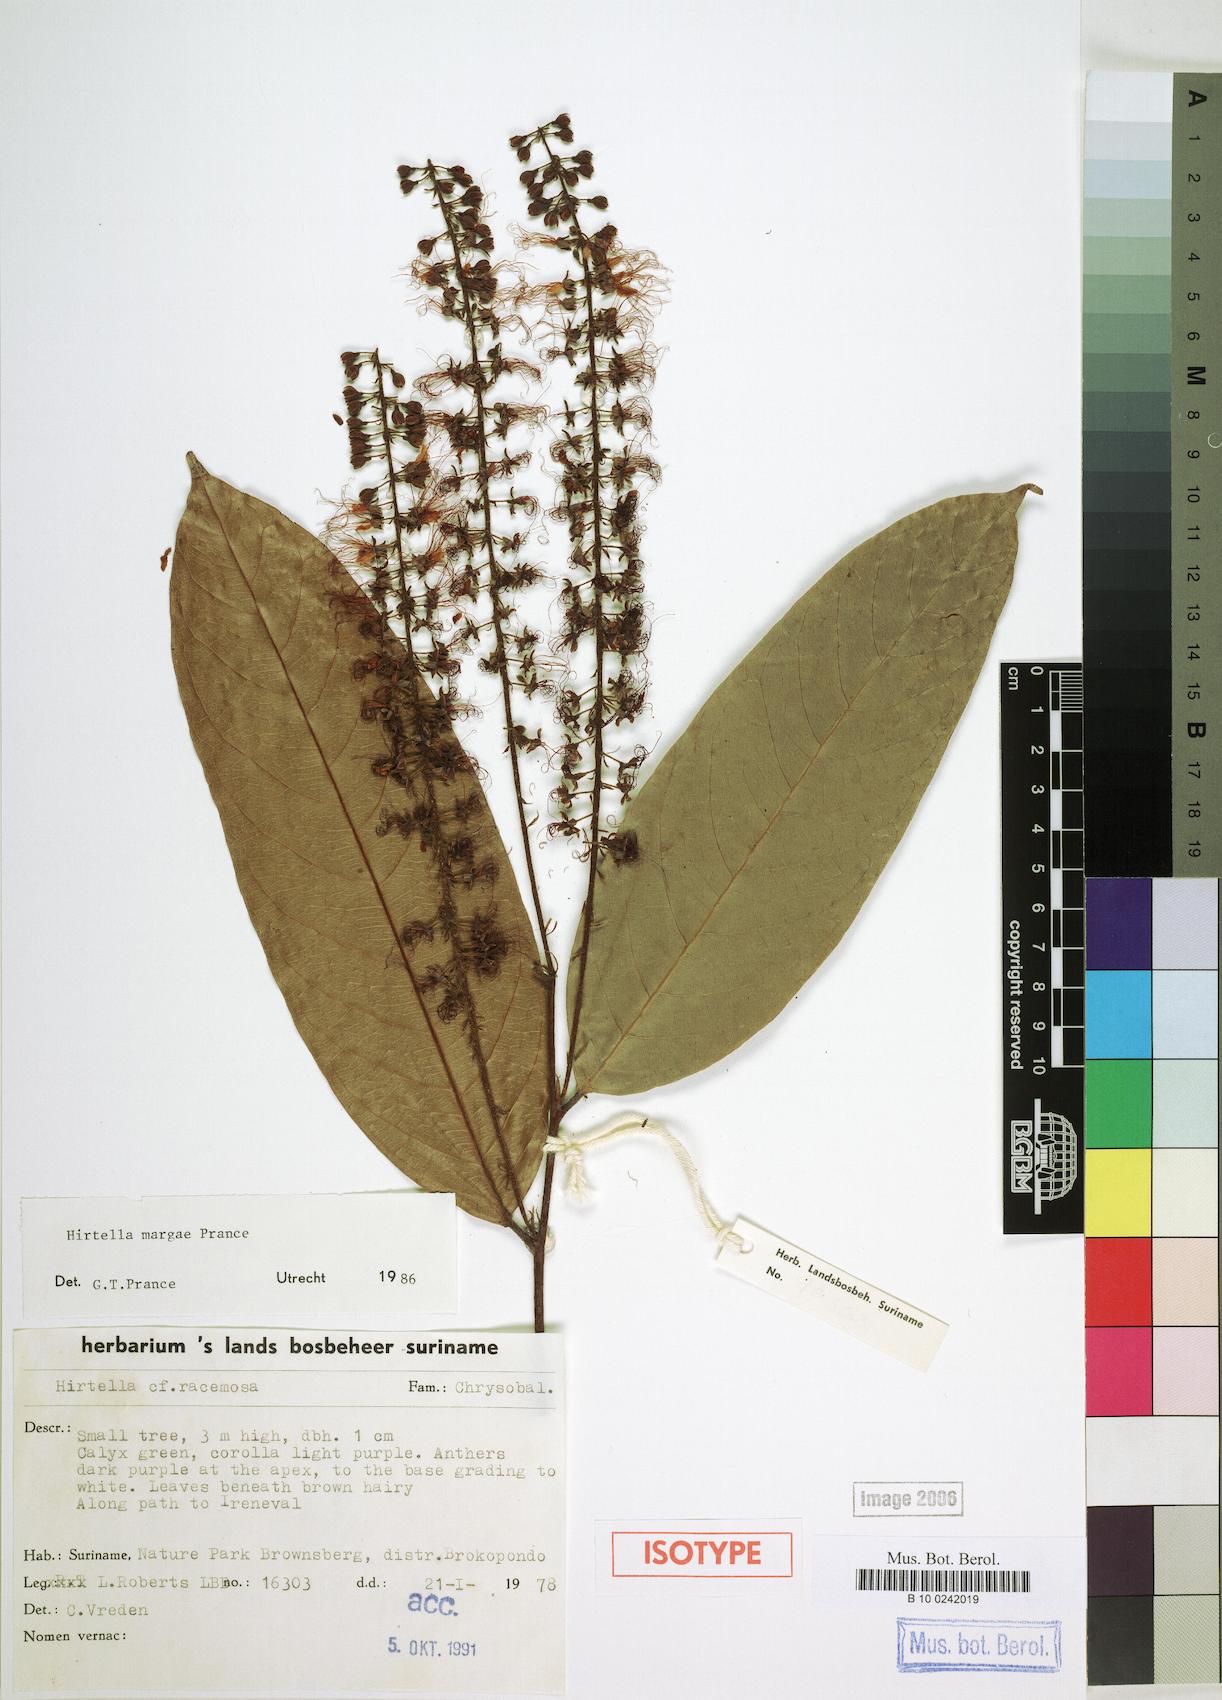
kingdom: Plantae
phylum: Tracheophyta
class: Magnoliopsida
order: Malpighiales
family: Chrysobalanaceae
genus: Hirtella
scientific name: Hirtella margae
